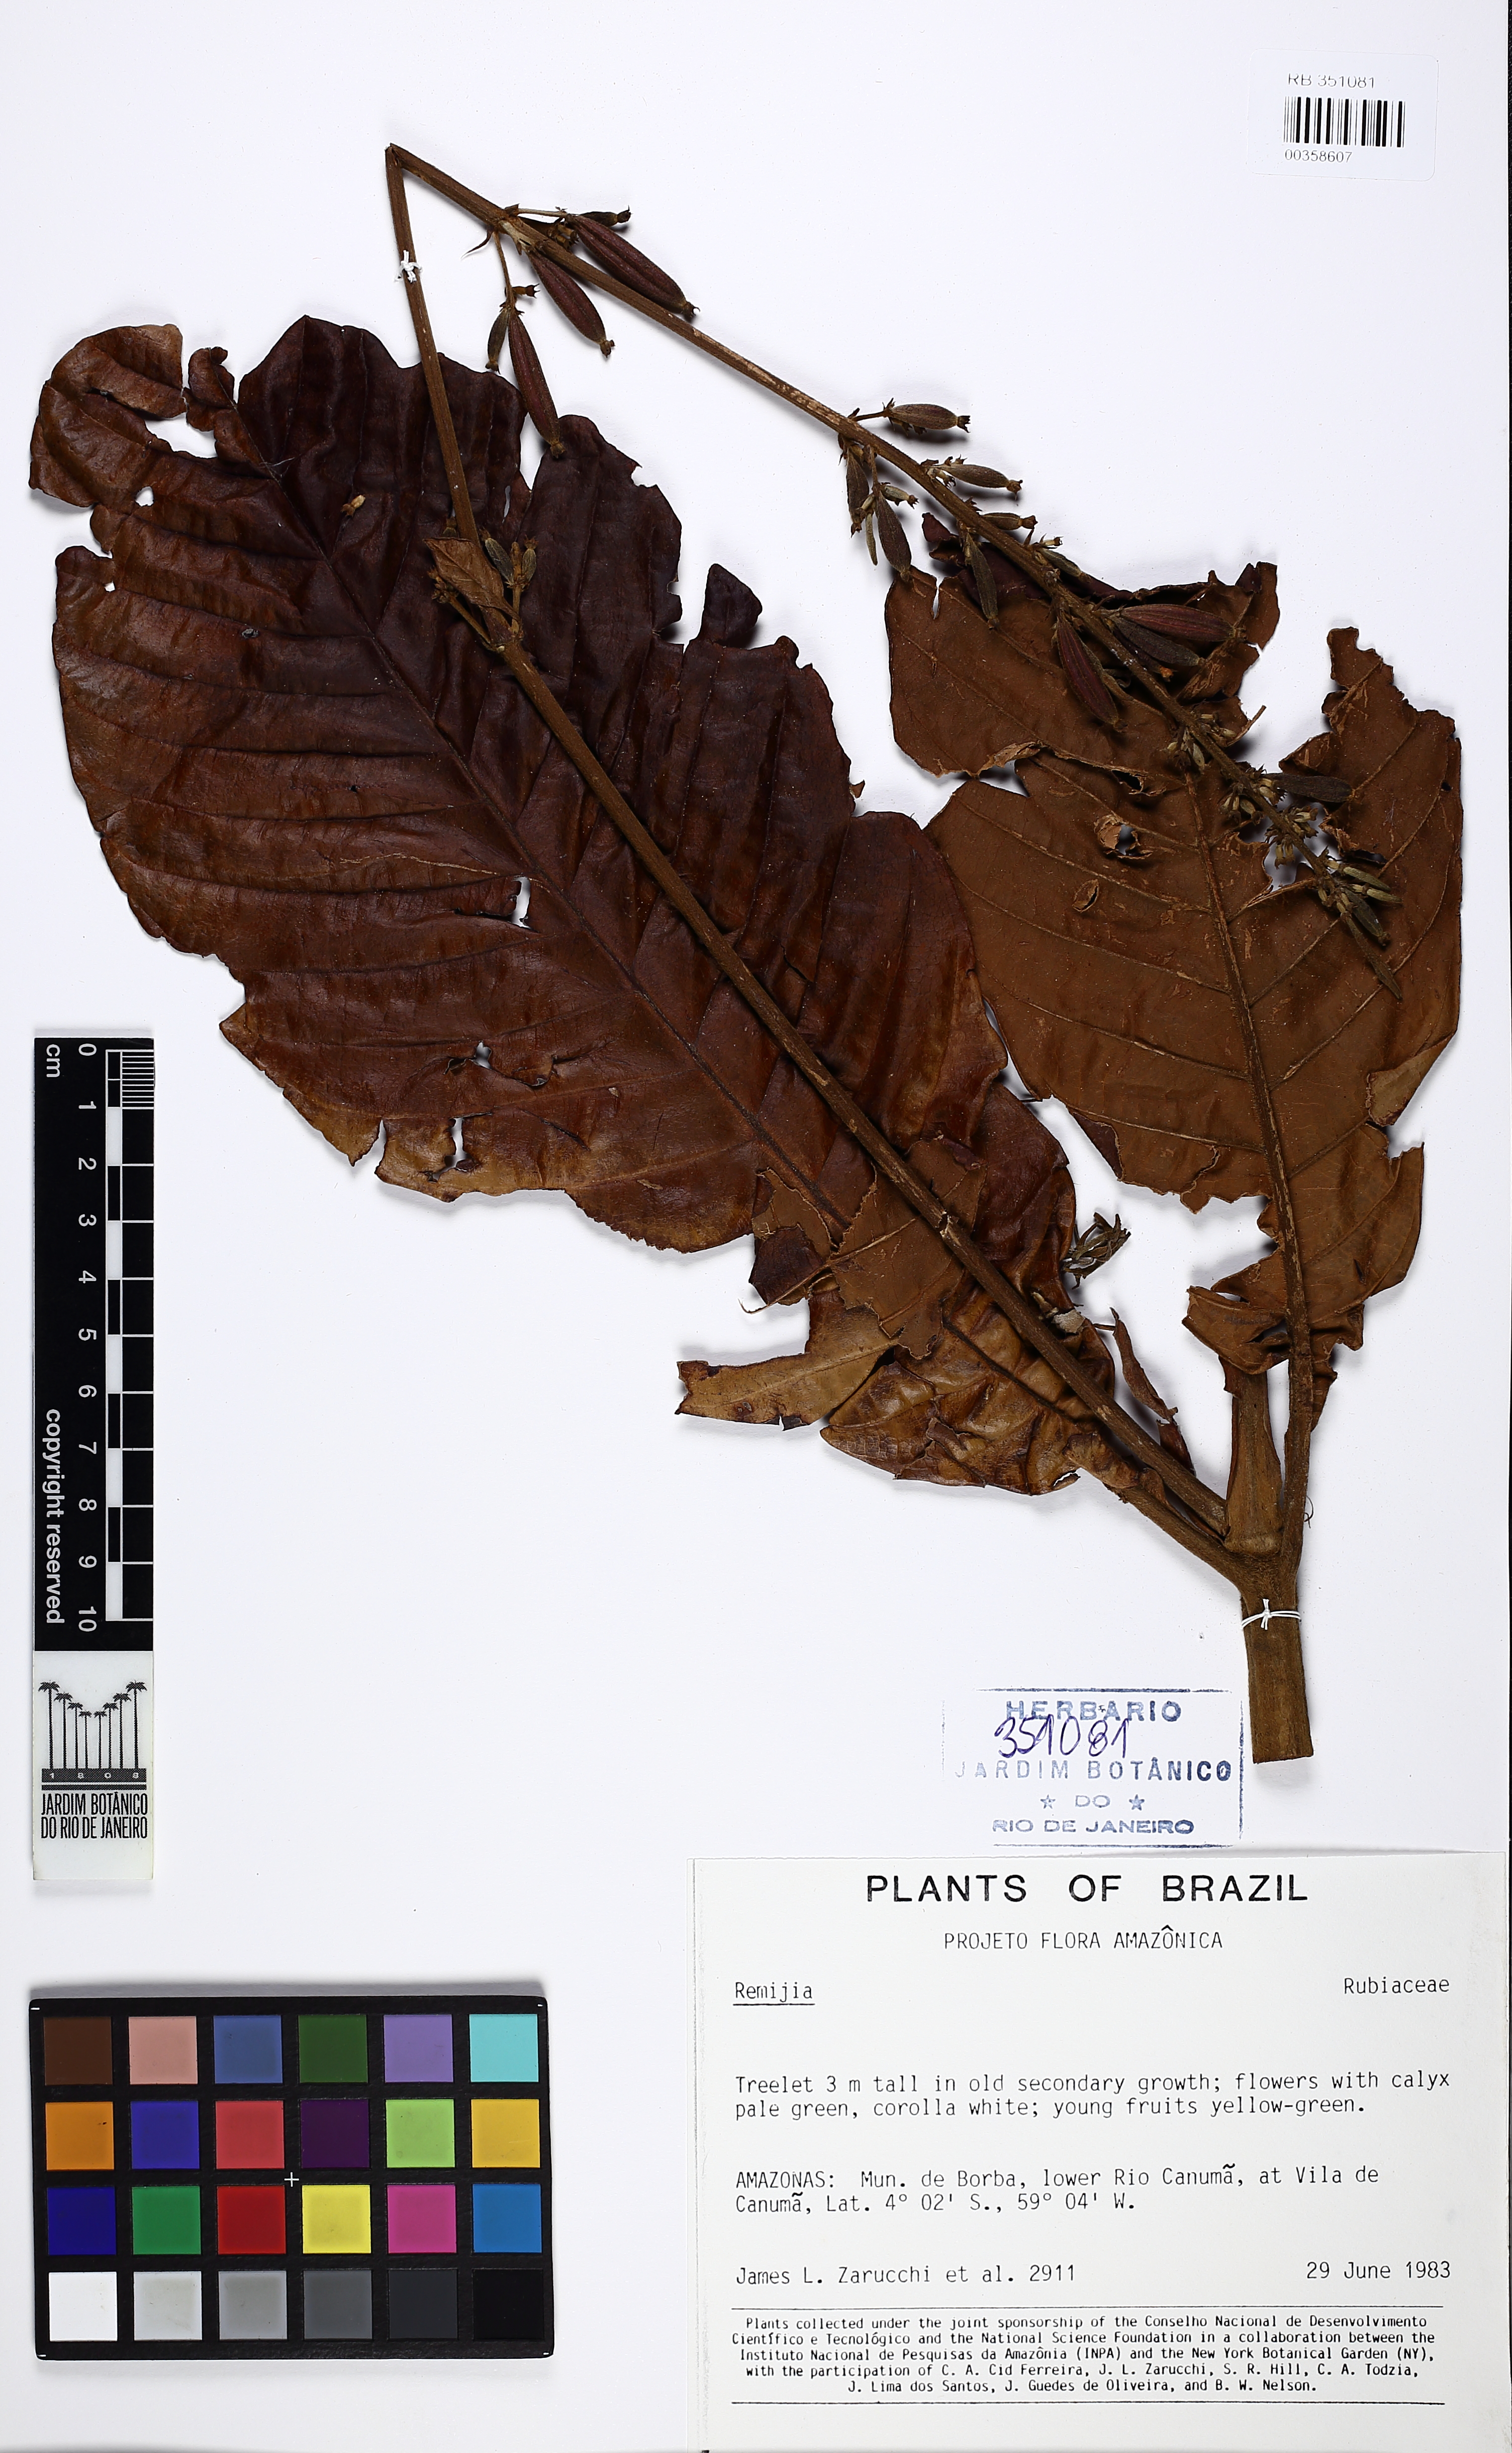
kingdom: Plantae
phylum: Tracheophyta
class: Magnoliopsida
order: Gentianales
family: Rubiaceae
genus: Remijia
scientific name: Remijia amazonica
